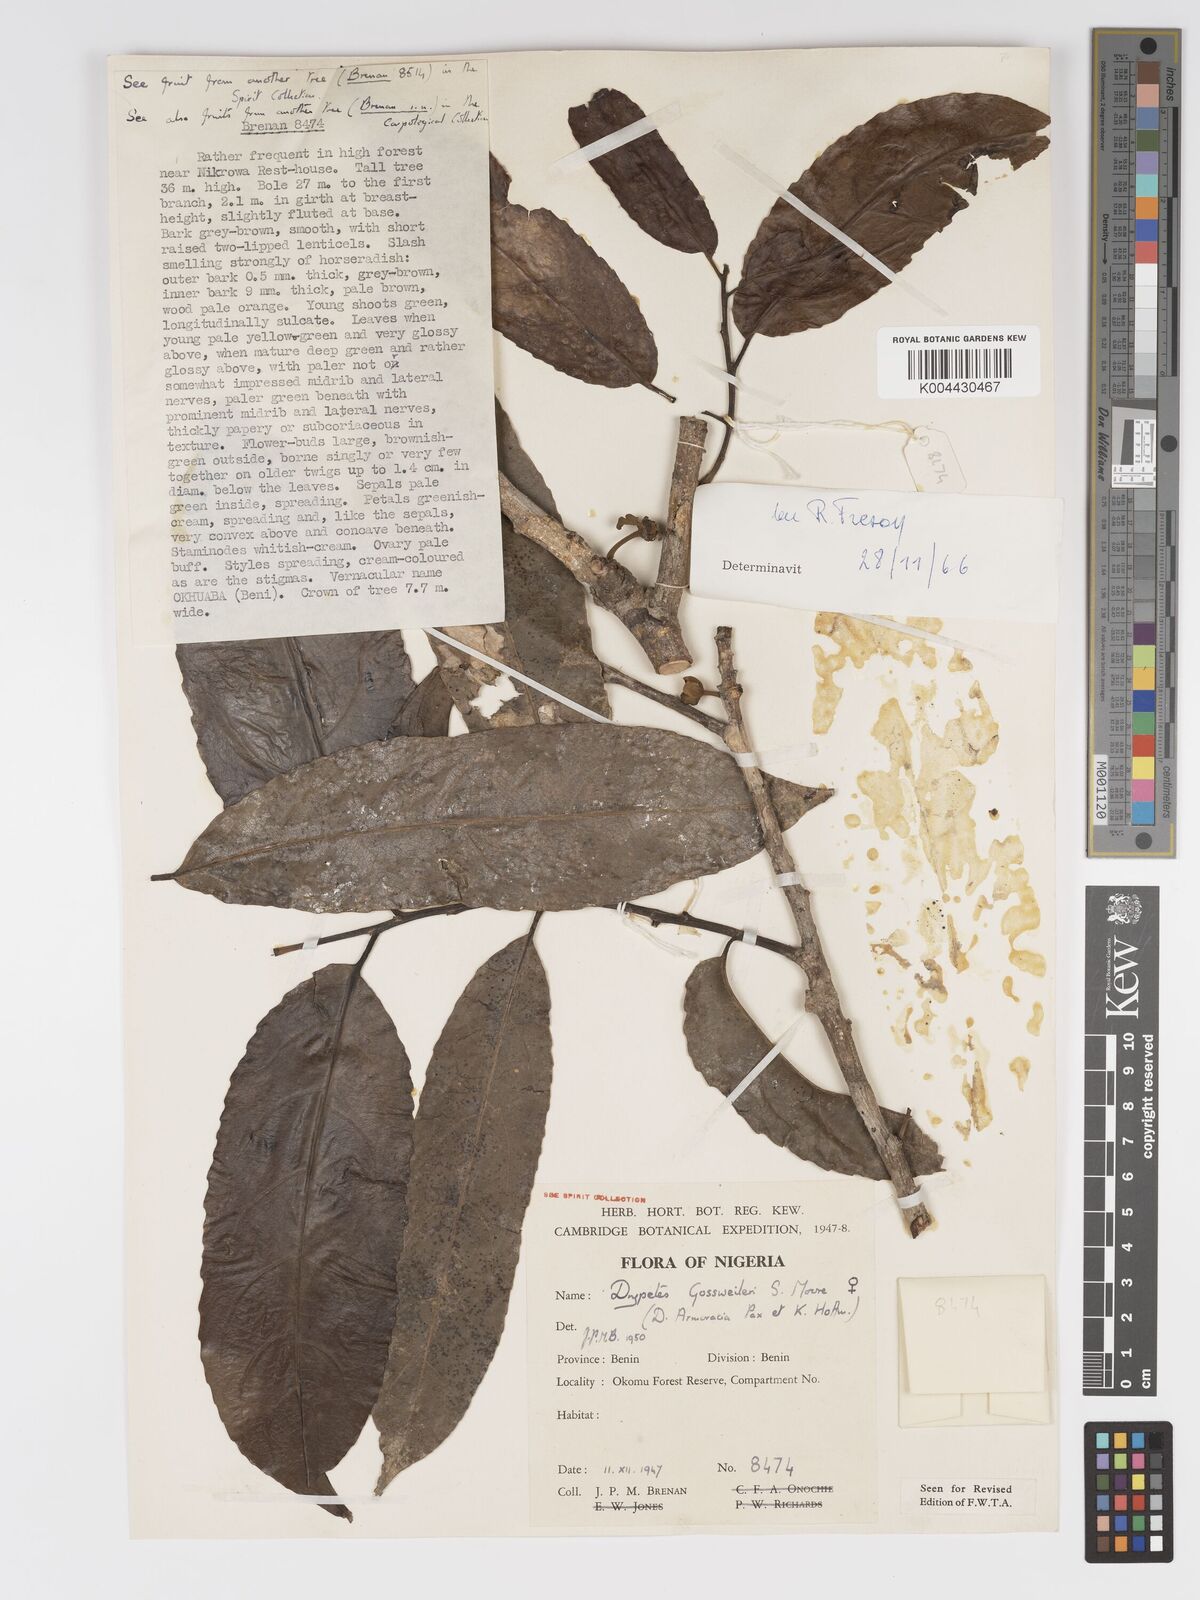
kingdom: Plantae
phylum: Tracheophyta
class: Magnoliopsida
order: Malpighiales
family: Putranjivaceae
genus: Drypetes
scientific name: Drypetes gossweileri
